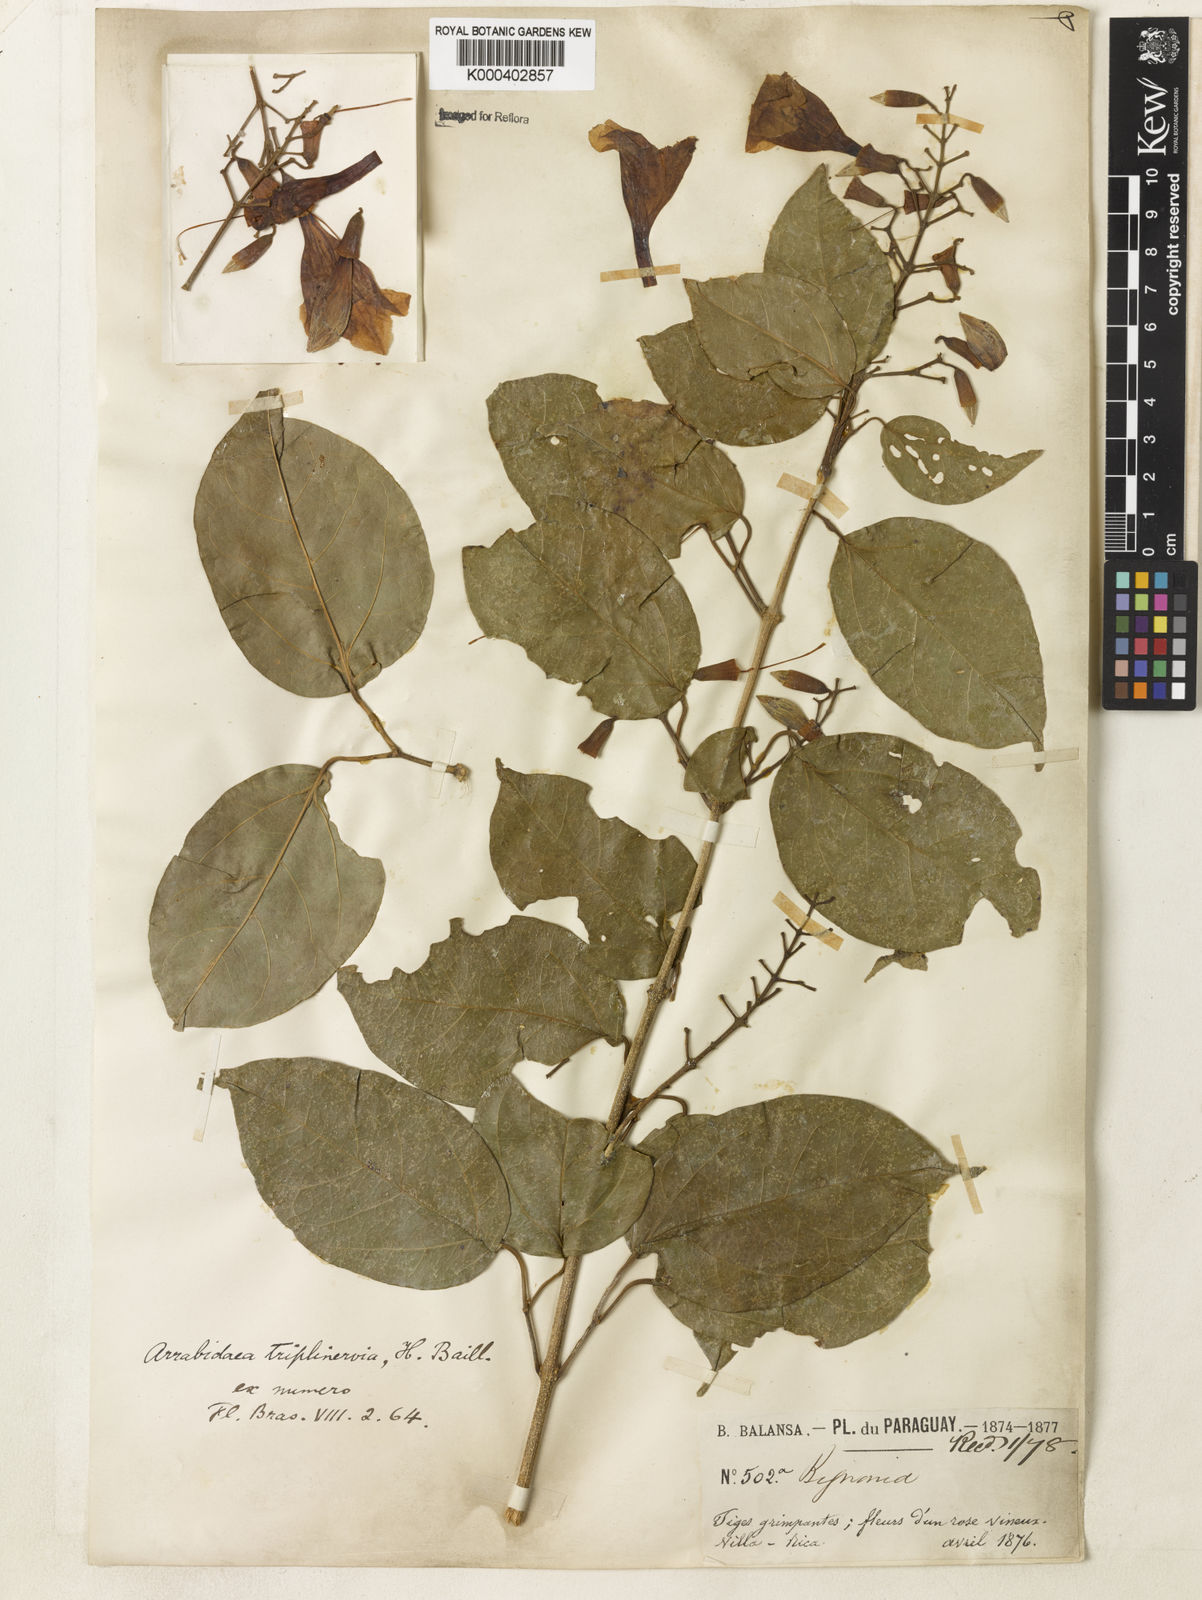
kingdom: Plantae
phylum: Tracheophyta
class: Magnoliopsida
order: Lamiales
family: Bignoniaceae
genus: Fridericia
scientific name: Fridericia triplinervia
